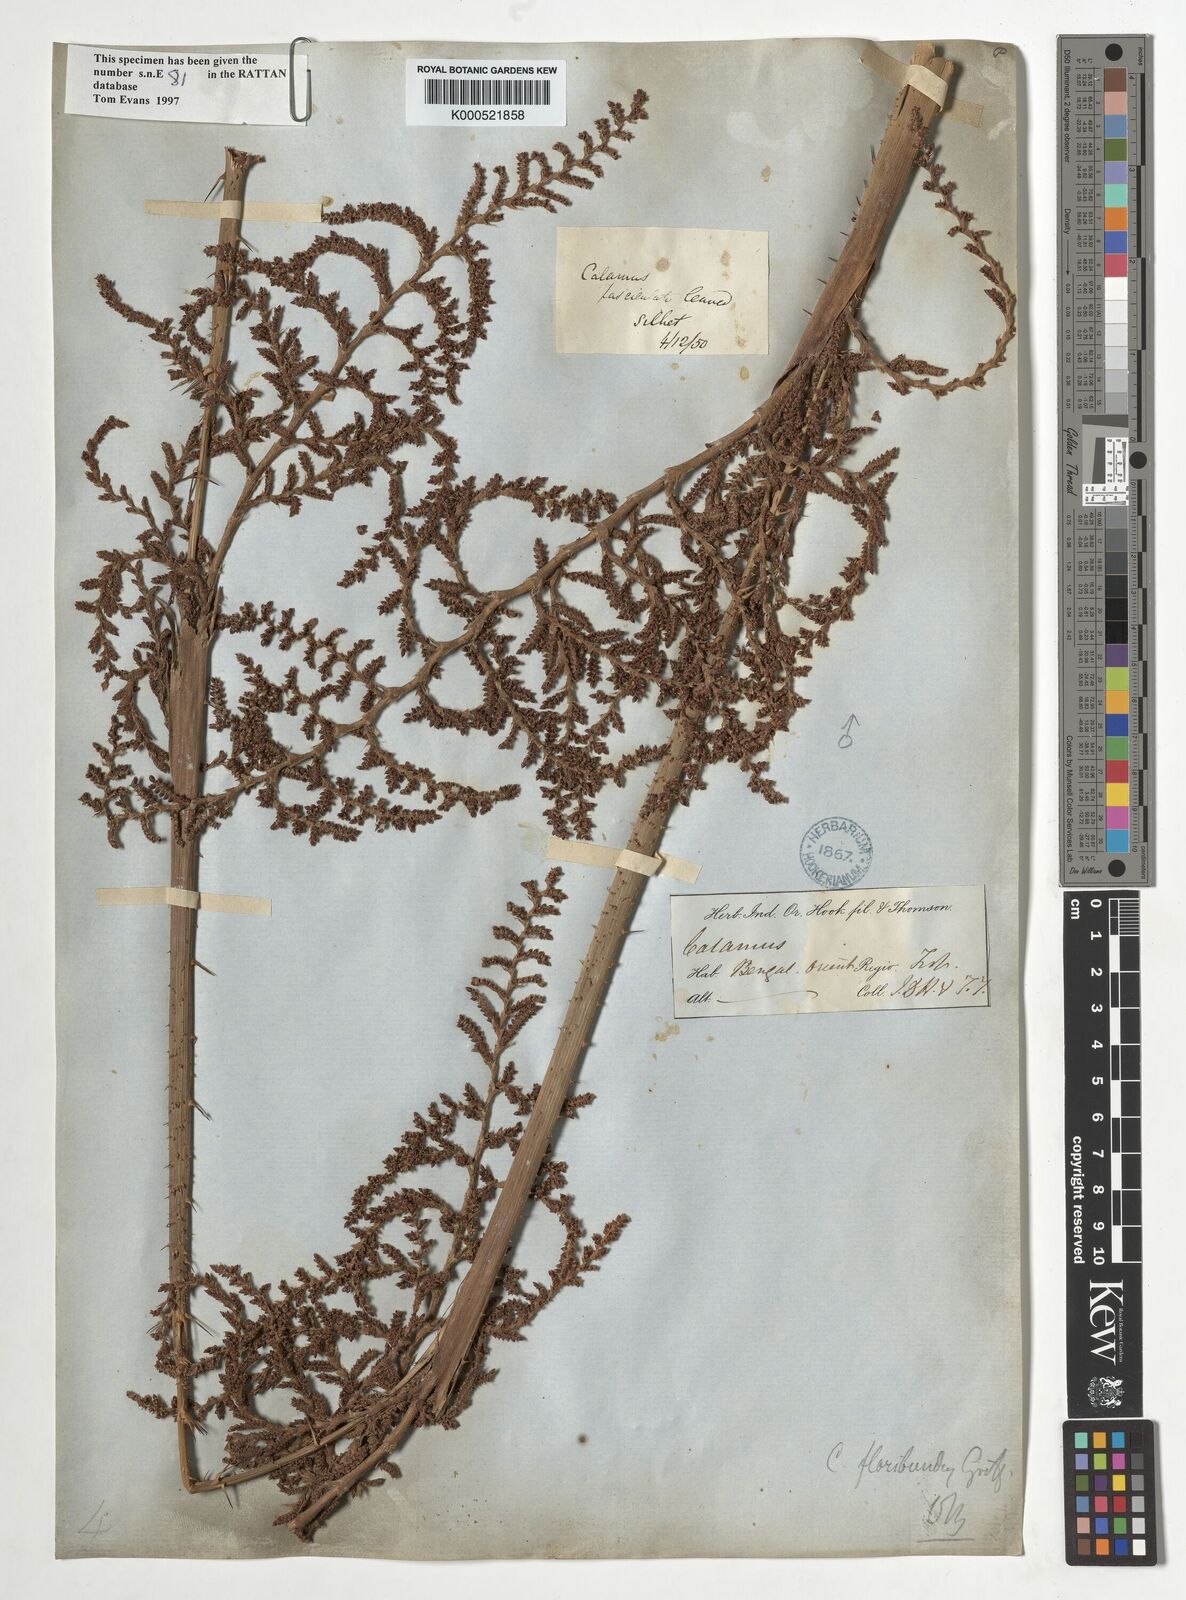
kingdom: Plantae
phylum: Tracheophyta
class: Liliopsida
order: Arecales
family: Arecaceae
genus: Calamus
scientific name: Calamus floribundus
